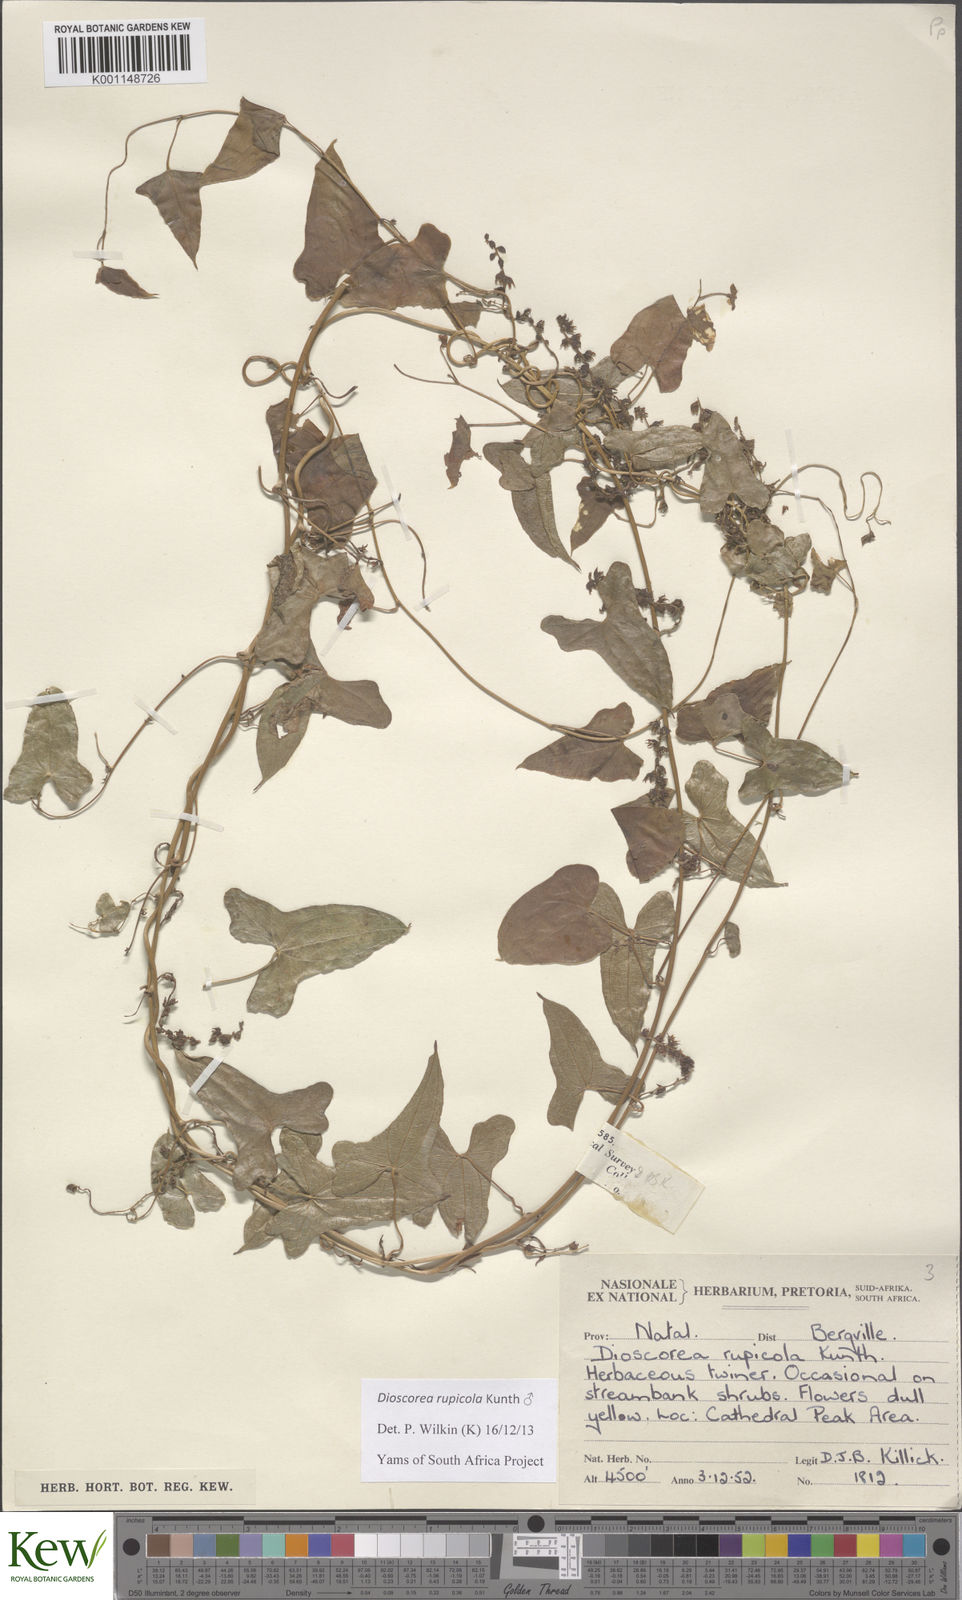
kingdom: Plantae
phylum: Tracheophyta
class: Liliopsida
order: Dioscoreales
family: Dioscoreaceae
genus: Dioscorea
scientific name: Dioscorea rupicola
